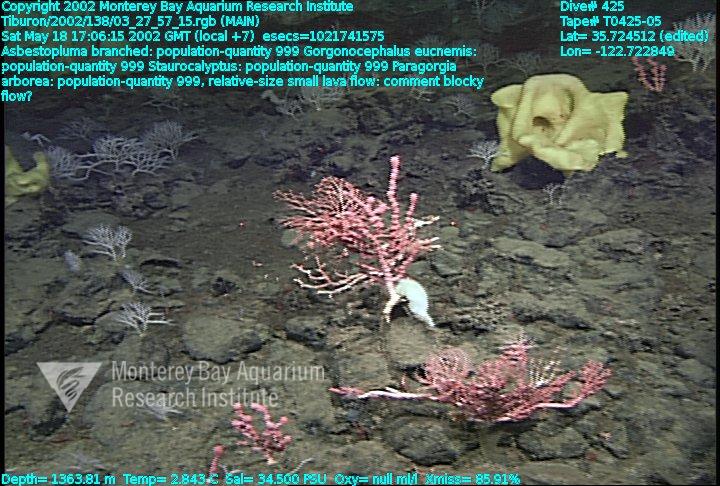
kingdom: Animalia
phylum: Porifera
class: Demospongiae
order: Poecilosclerida
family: Cladorhizidae
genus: Asbestopluma
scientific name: Asbestopluma monticola
